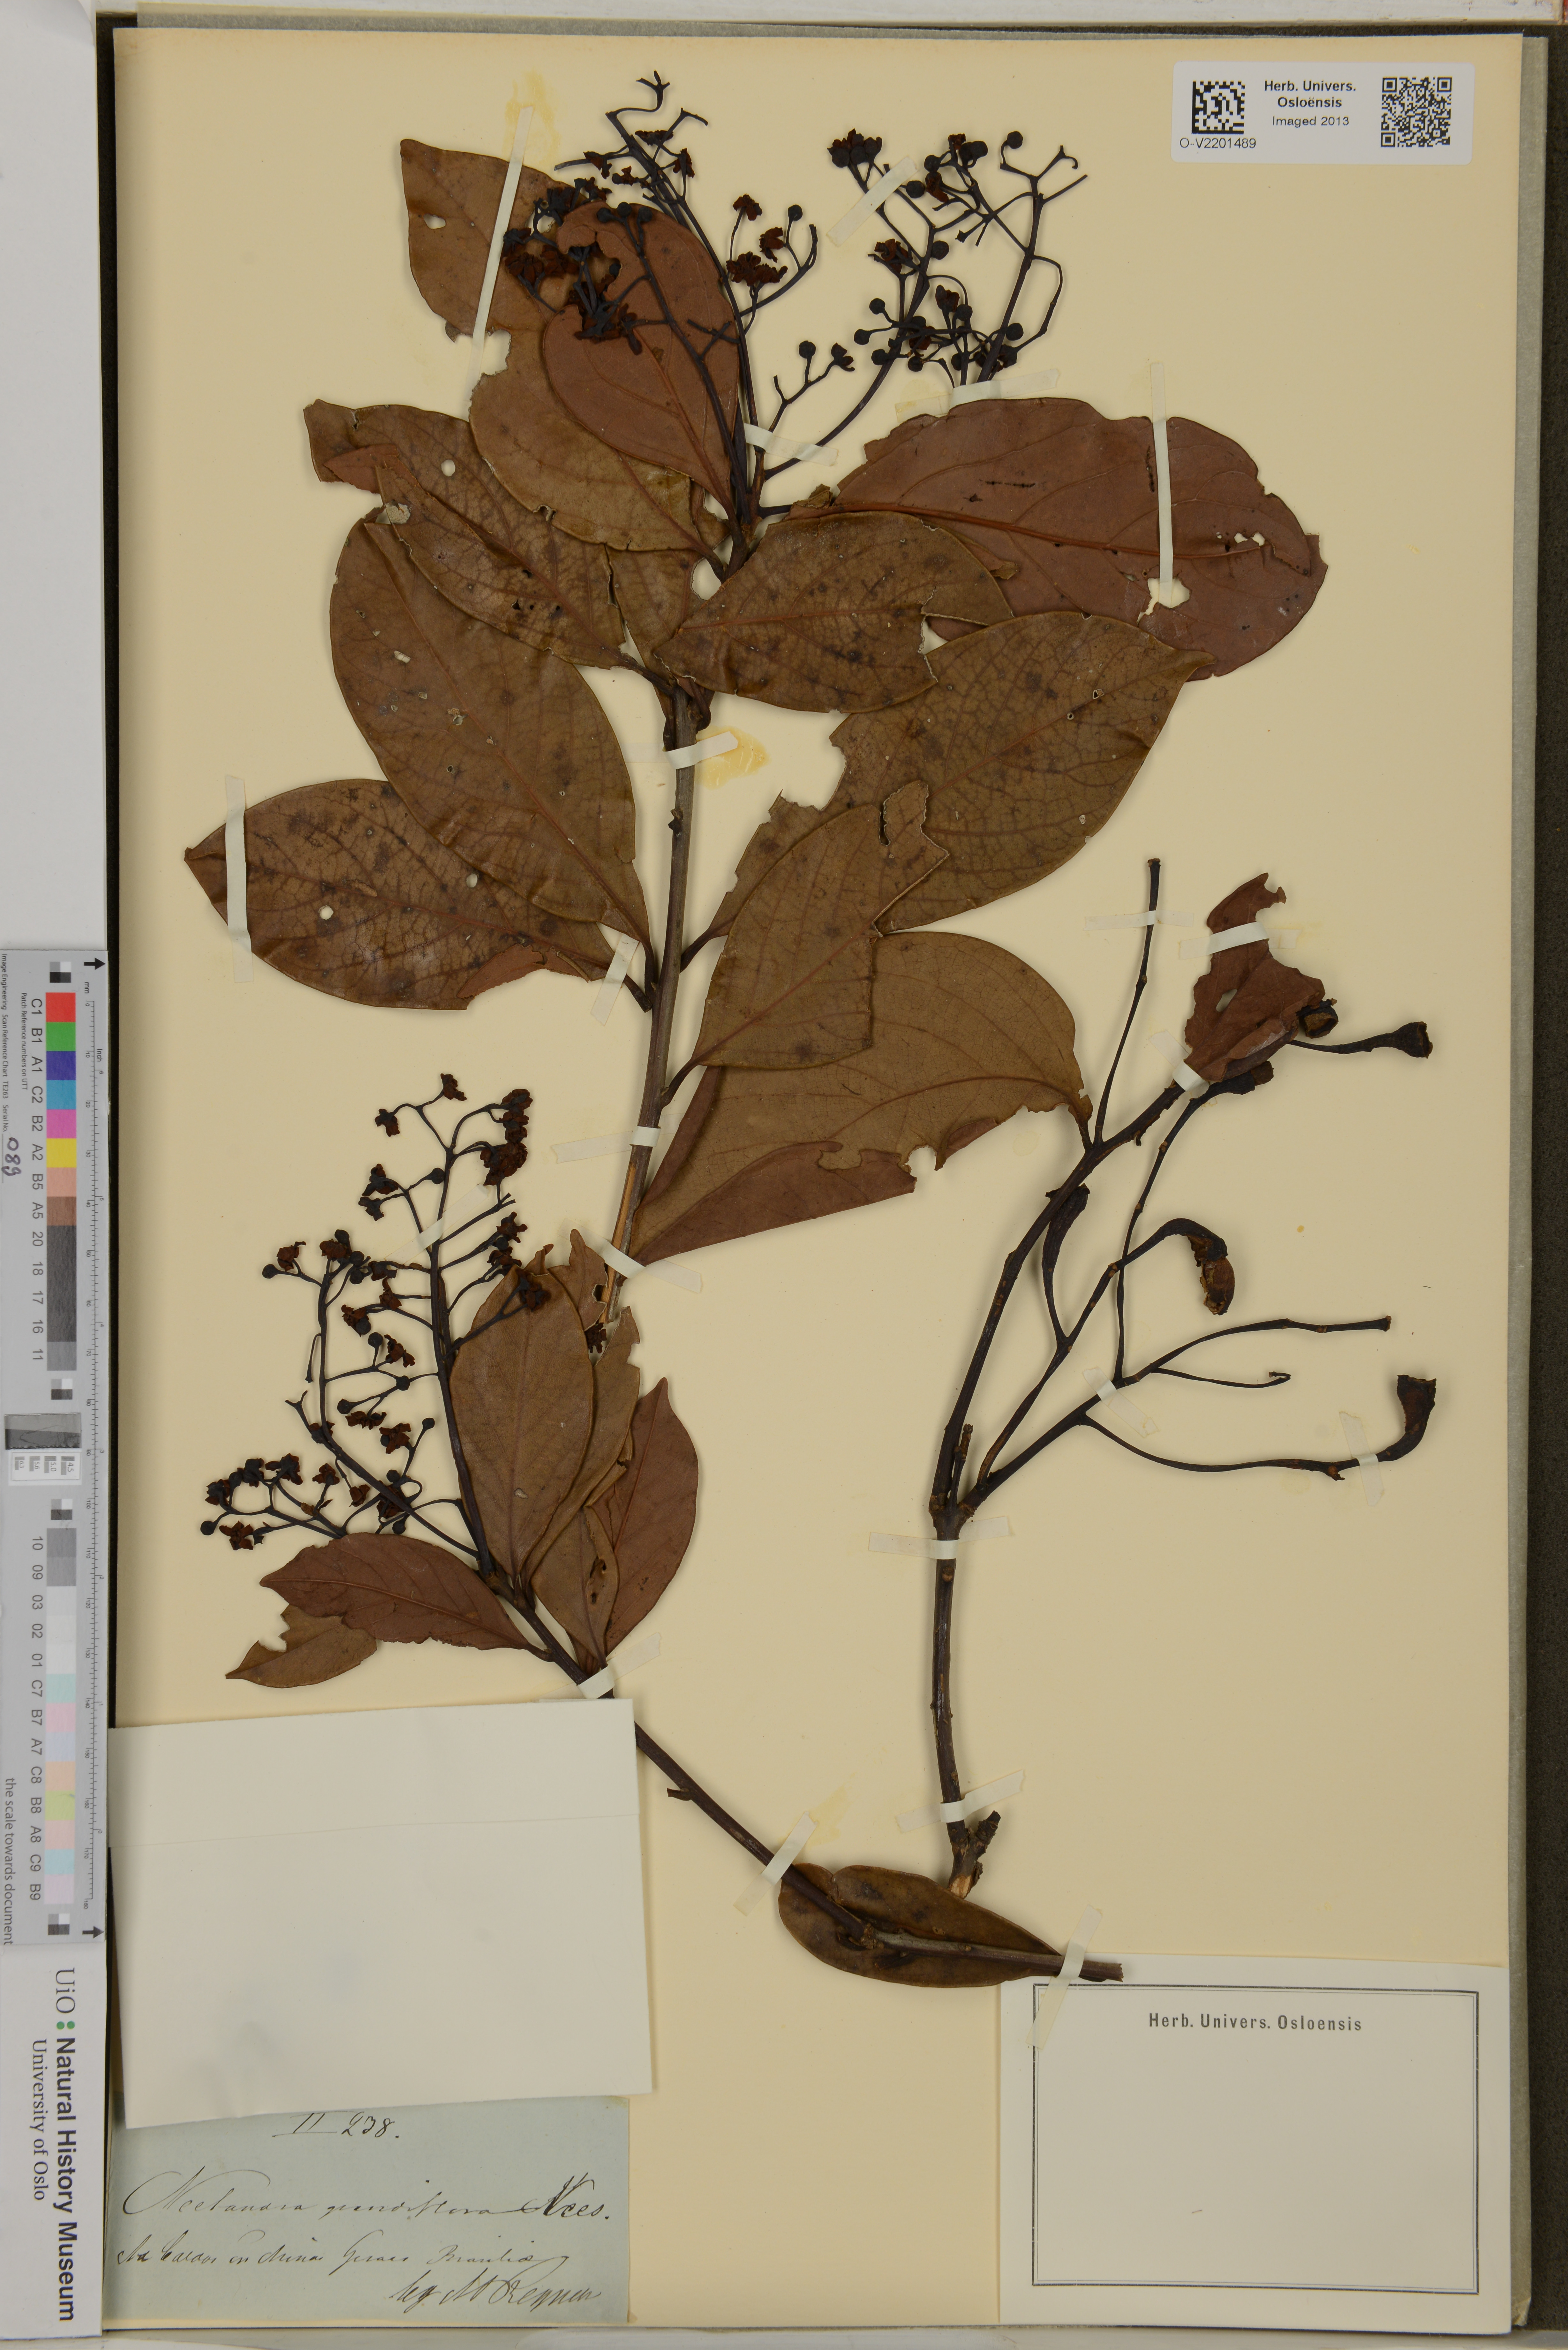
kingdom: Plantae
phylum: Tracheophyta
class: Magnoliopsida
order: Laurales
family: Lauraceae
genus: Nectandra
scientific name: Nectandra grandiflora
